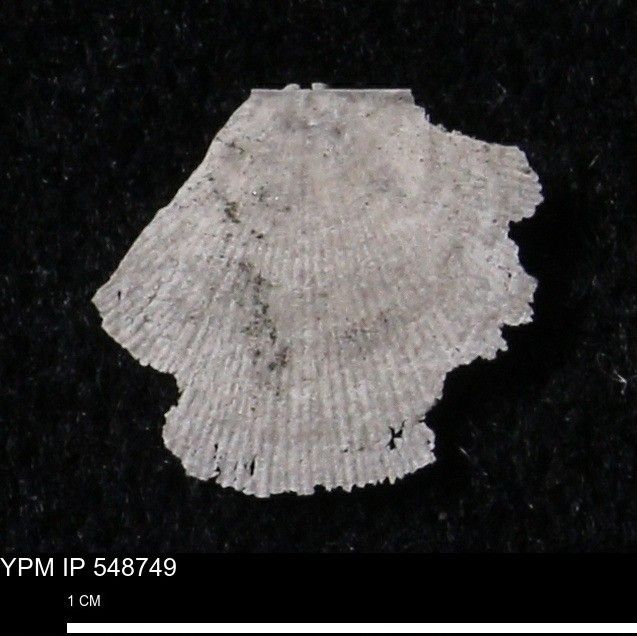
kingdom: Animalia
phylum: Brachiopoda
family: Stropheodontidae
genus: Protoleptostrophia
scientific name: Protoleptostrophia Strophomena perplana
